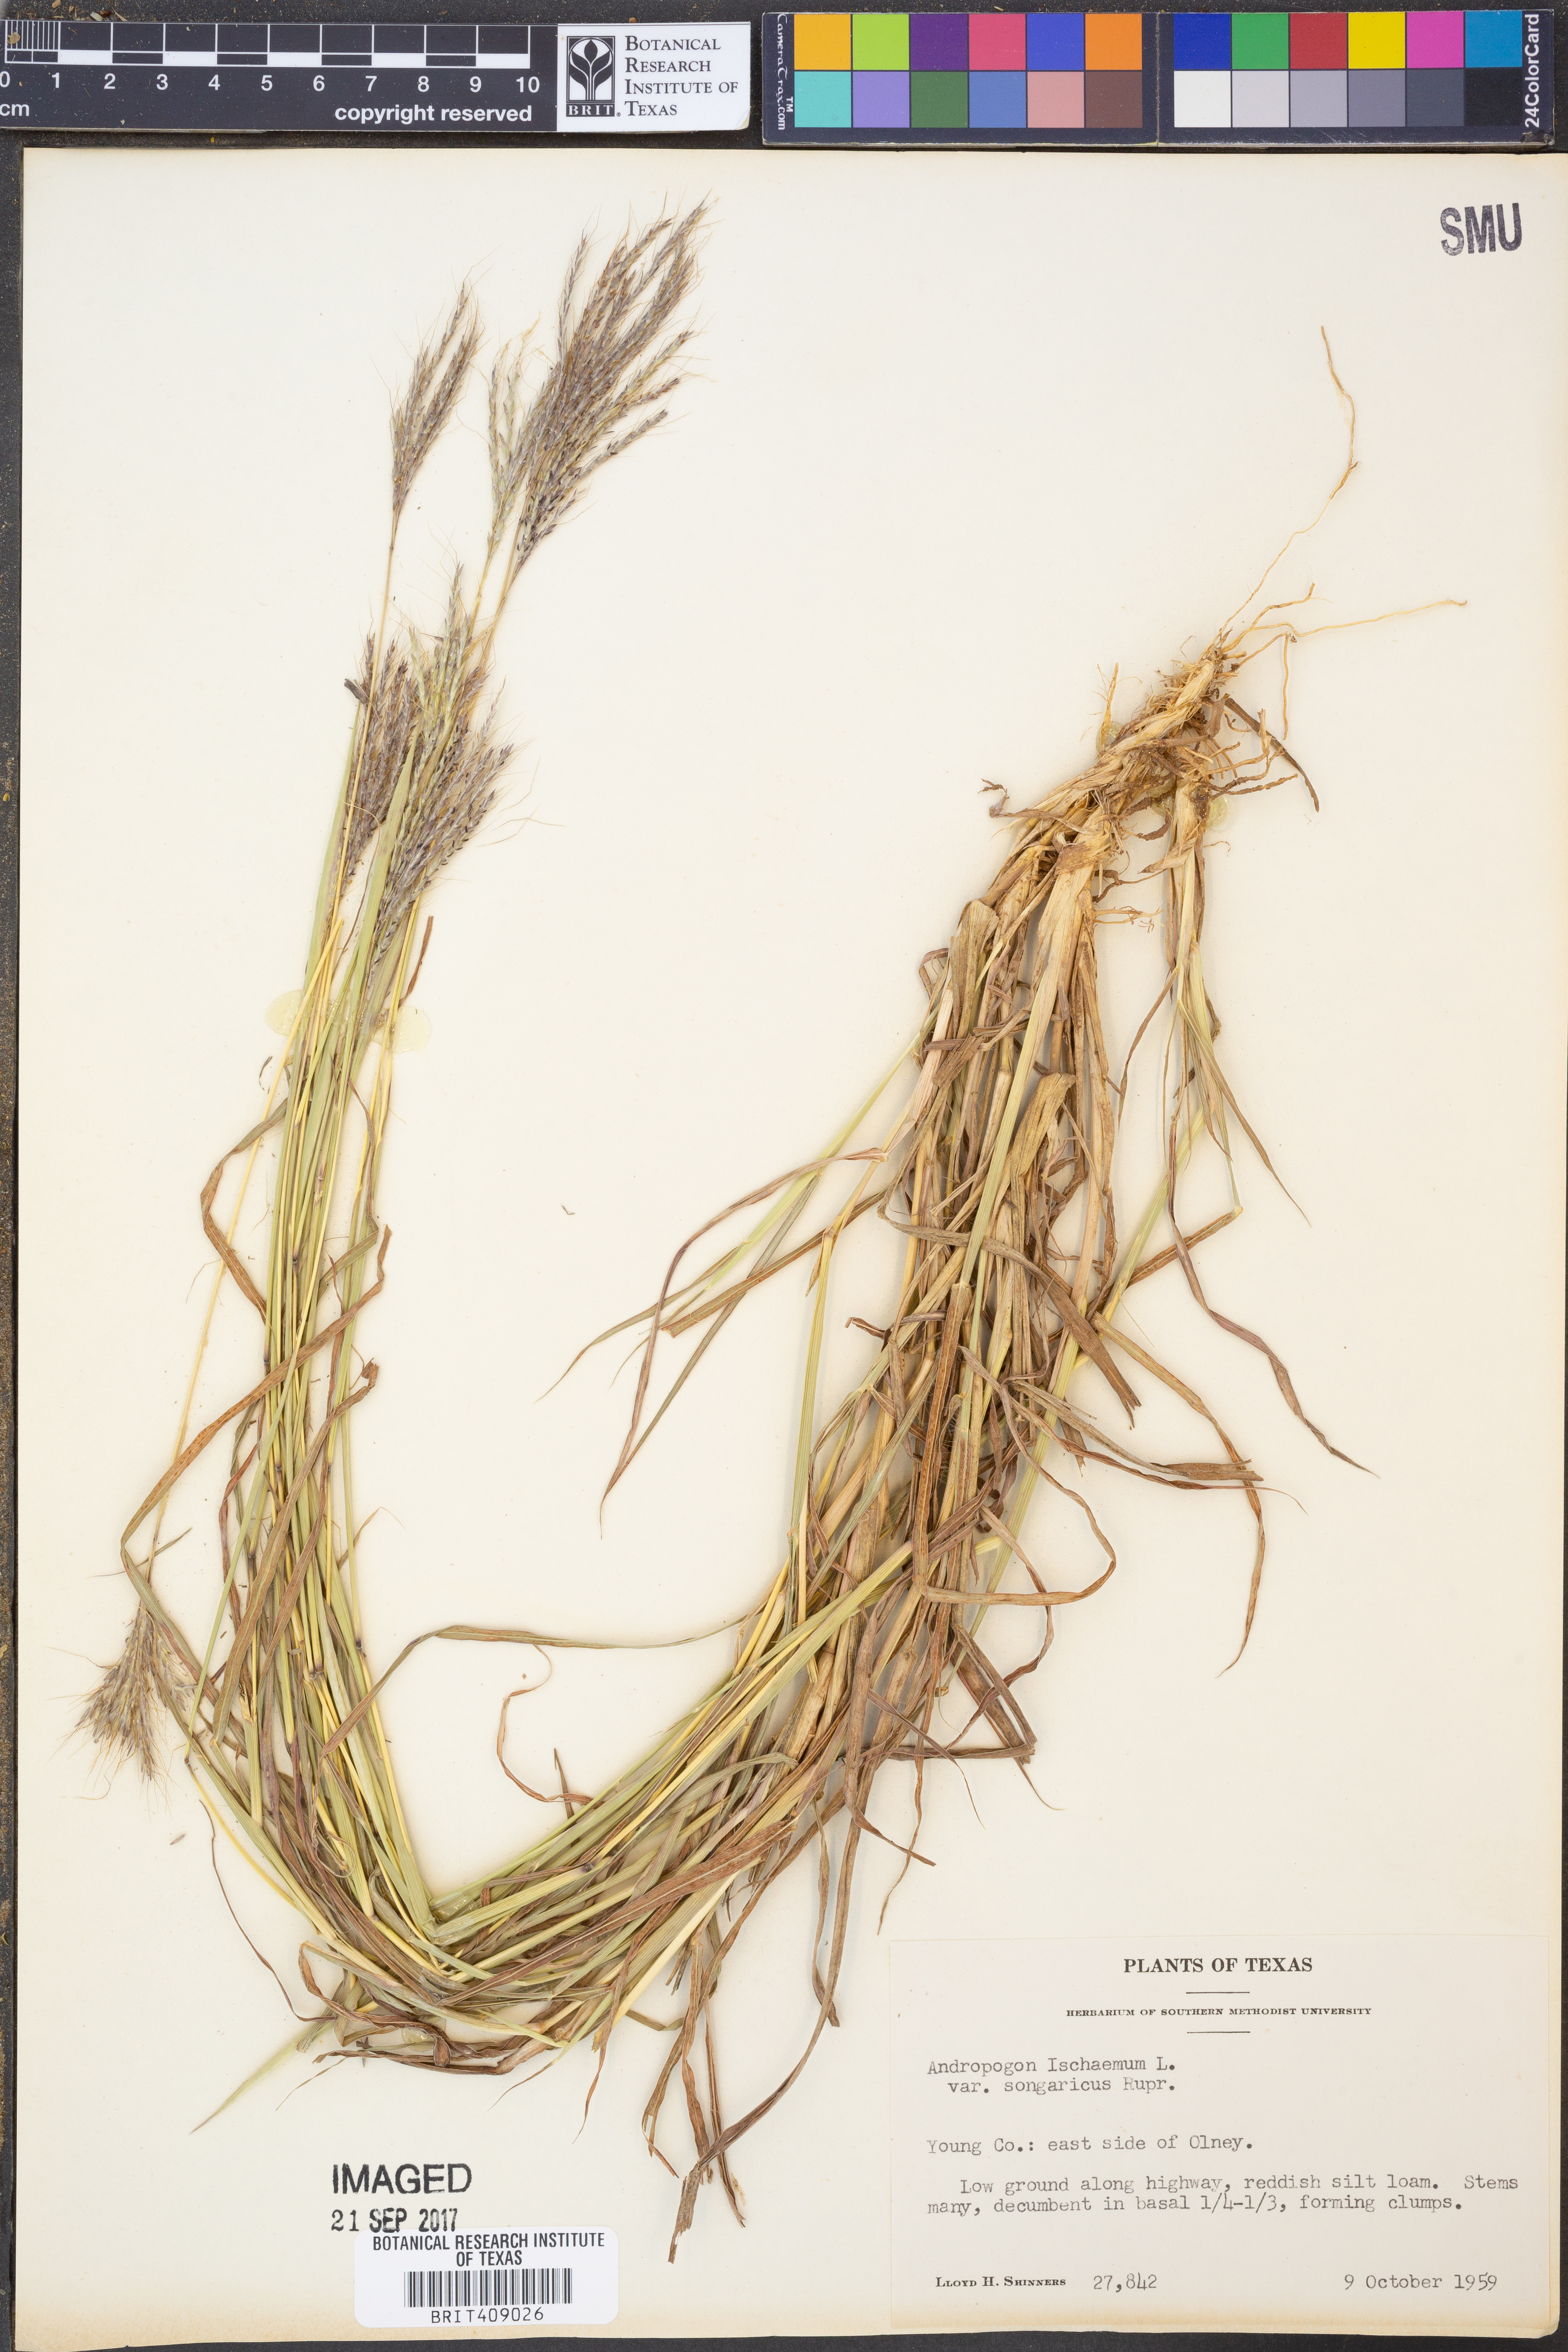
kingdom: Plantae
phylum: Tracheophyta
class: Liliopsida
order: Poales
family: Poaceae
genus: Bothriochloa
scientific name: Bothriochloa ischaemum
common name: Yellow bluestem
